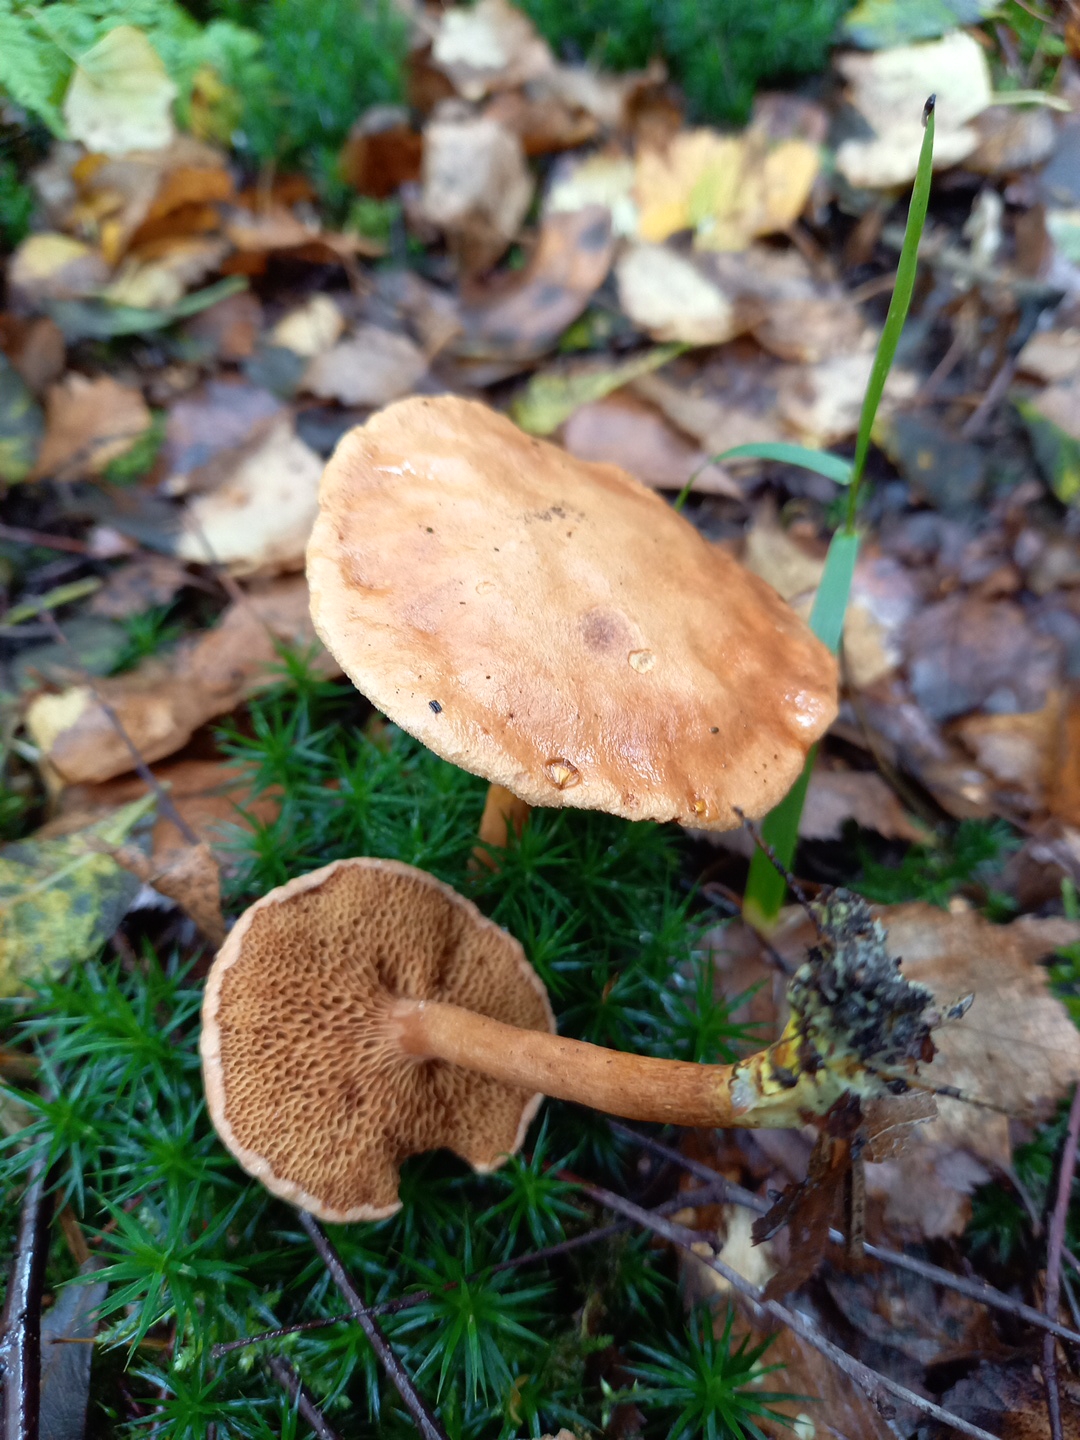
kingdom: Fungi
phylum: Basidiomycota
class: Agaricomycetes
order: Boletales
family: Boletaceae
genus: Chalciporus
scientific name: Chalciporus piperatus
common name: peberrørhat
